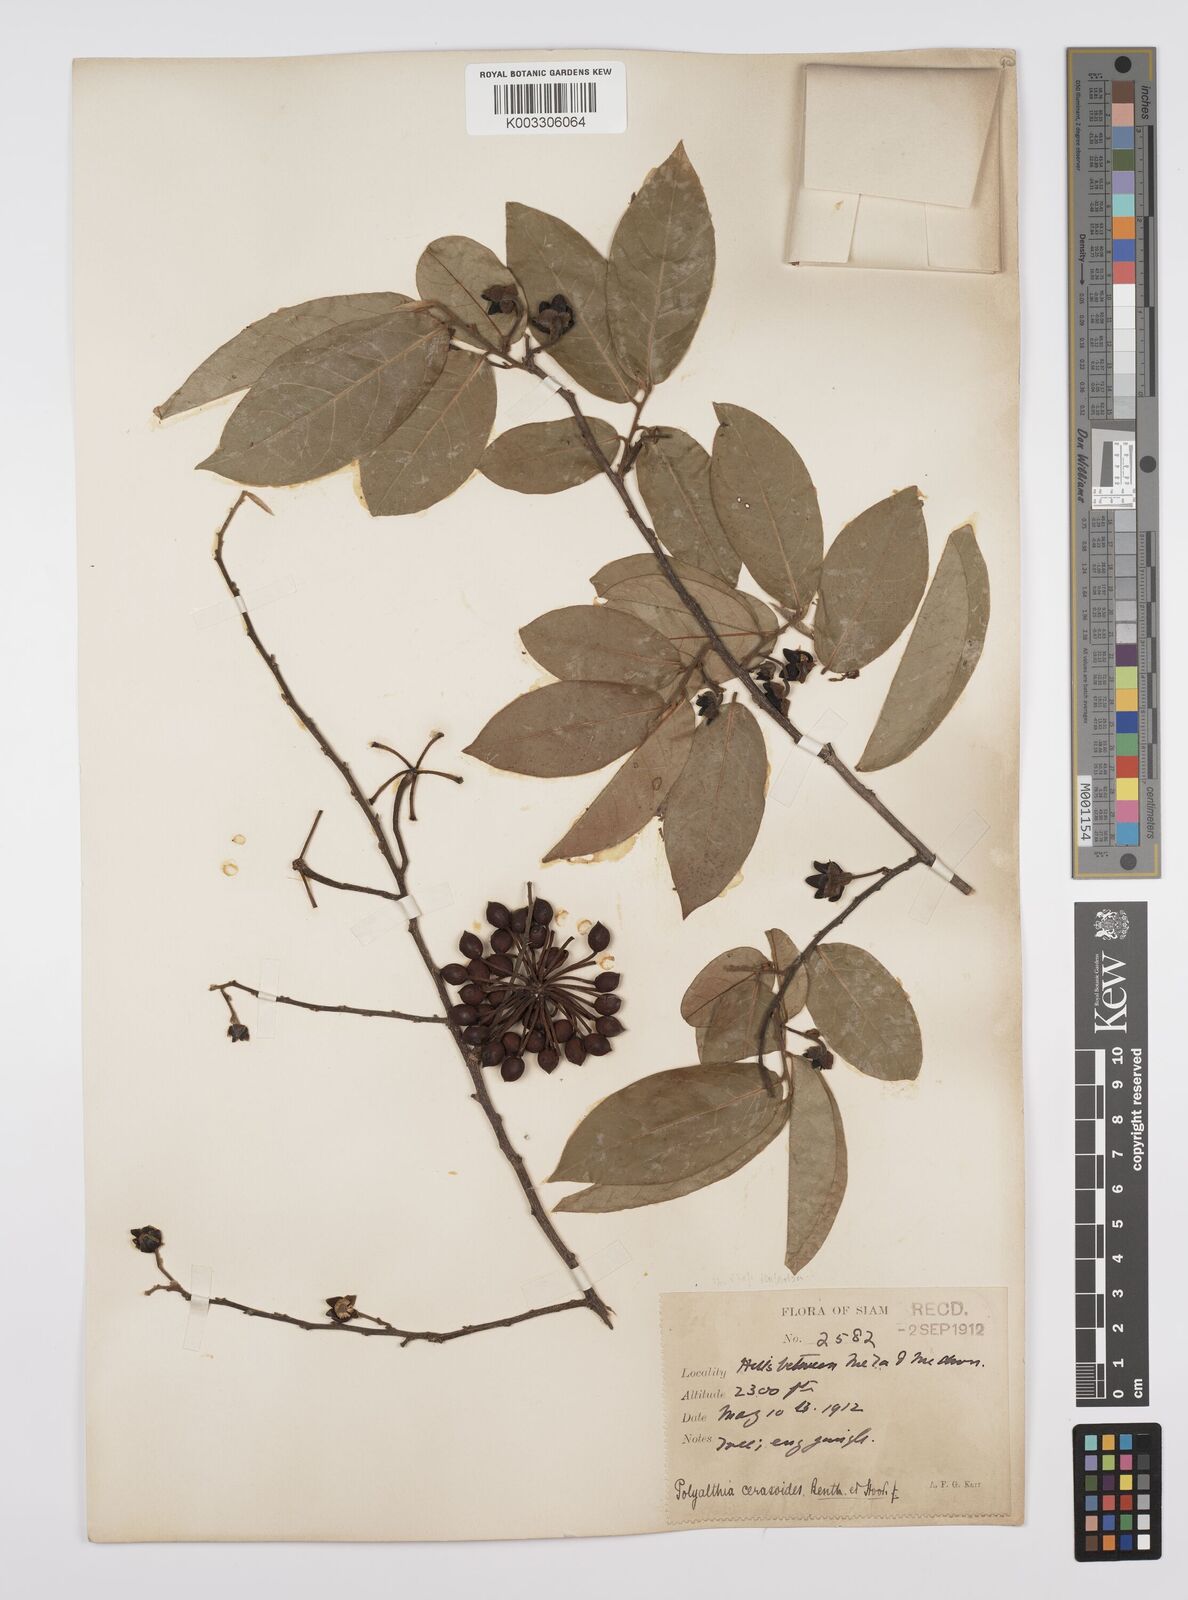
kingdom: Plantae
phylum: Tracheophyta
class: Magnoliopsida
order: Magnoliales
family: Annonaceae
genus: Hubera
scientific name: Hubera cerasoides
